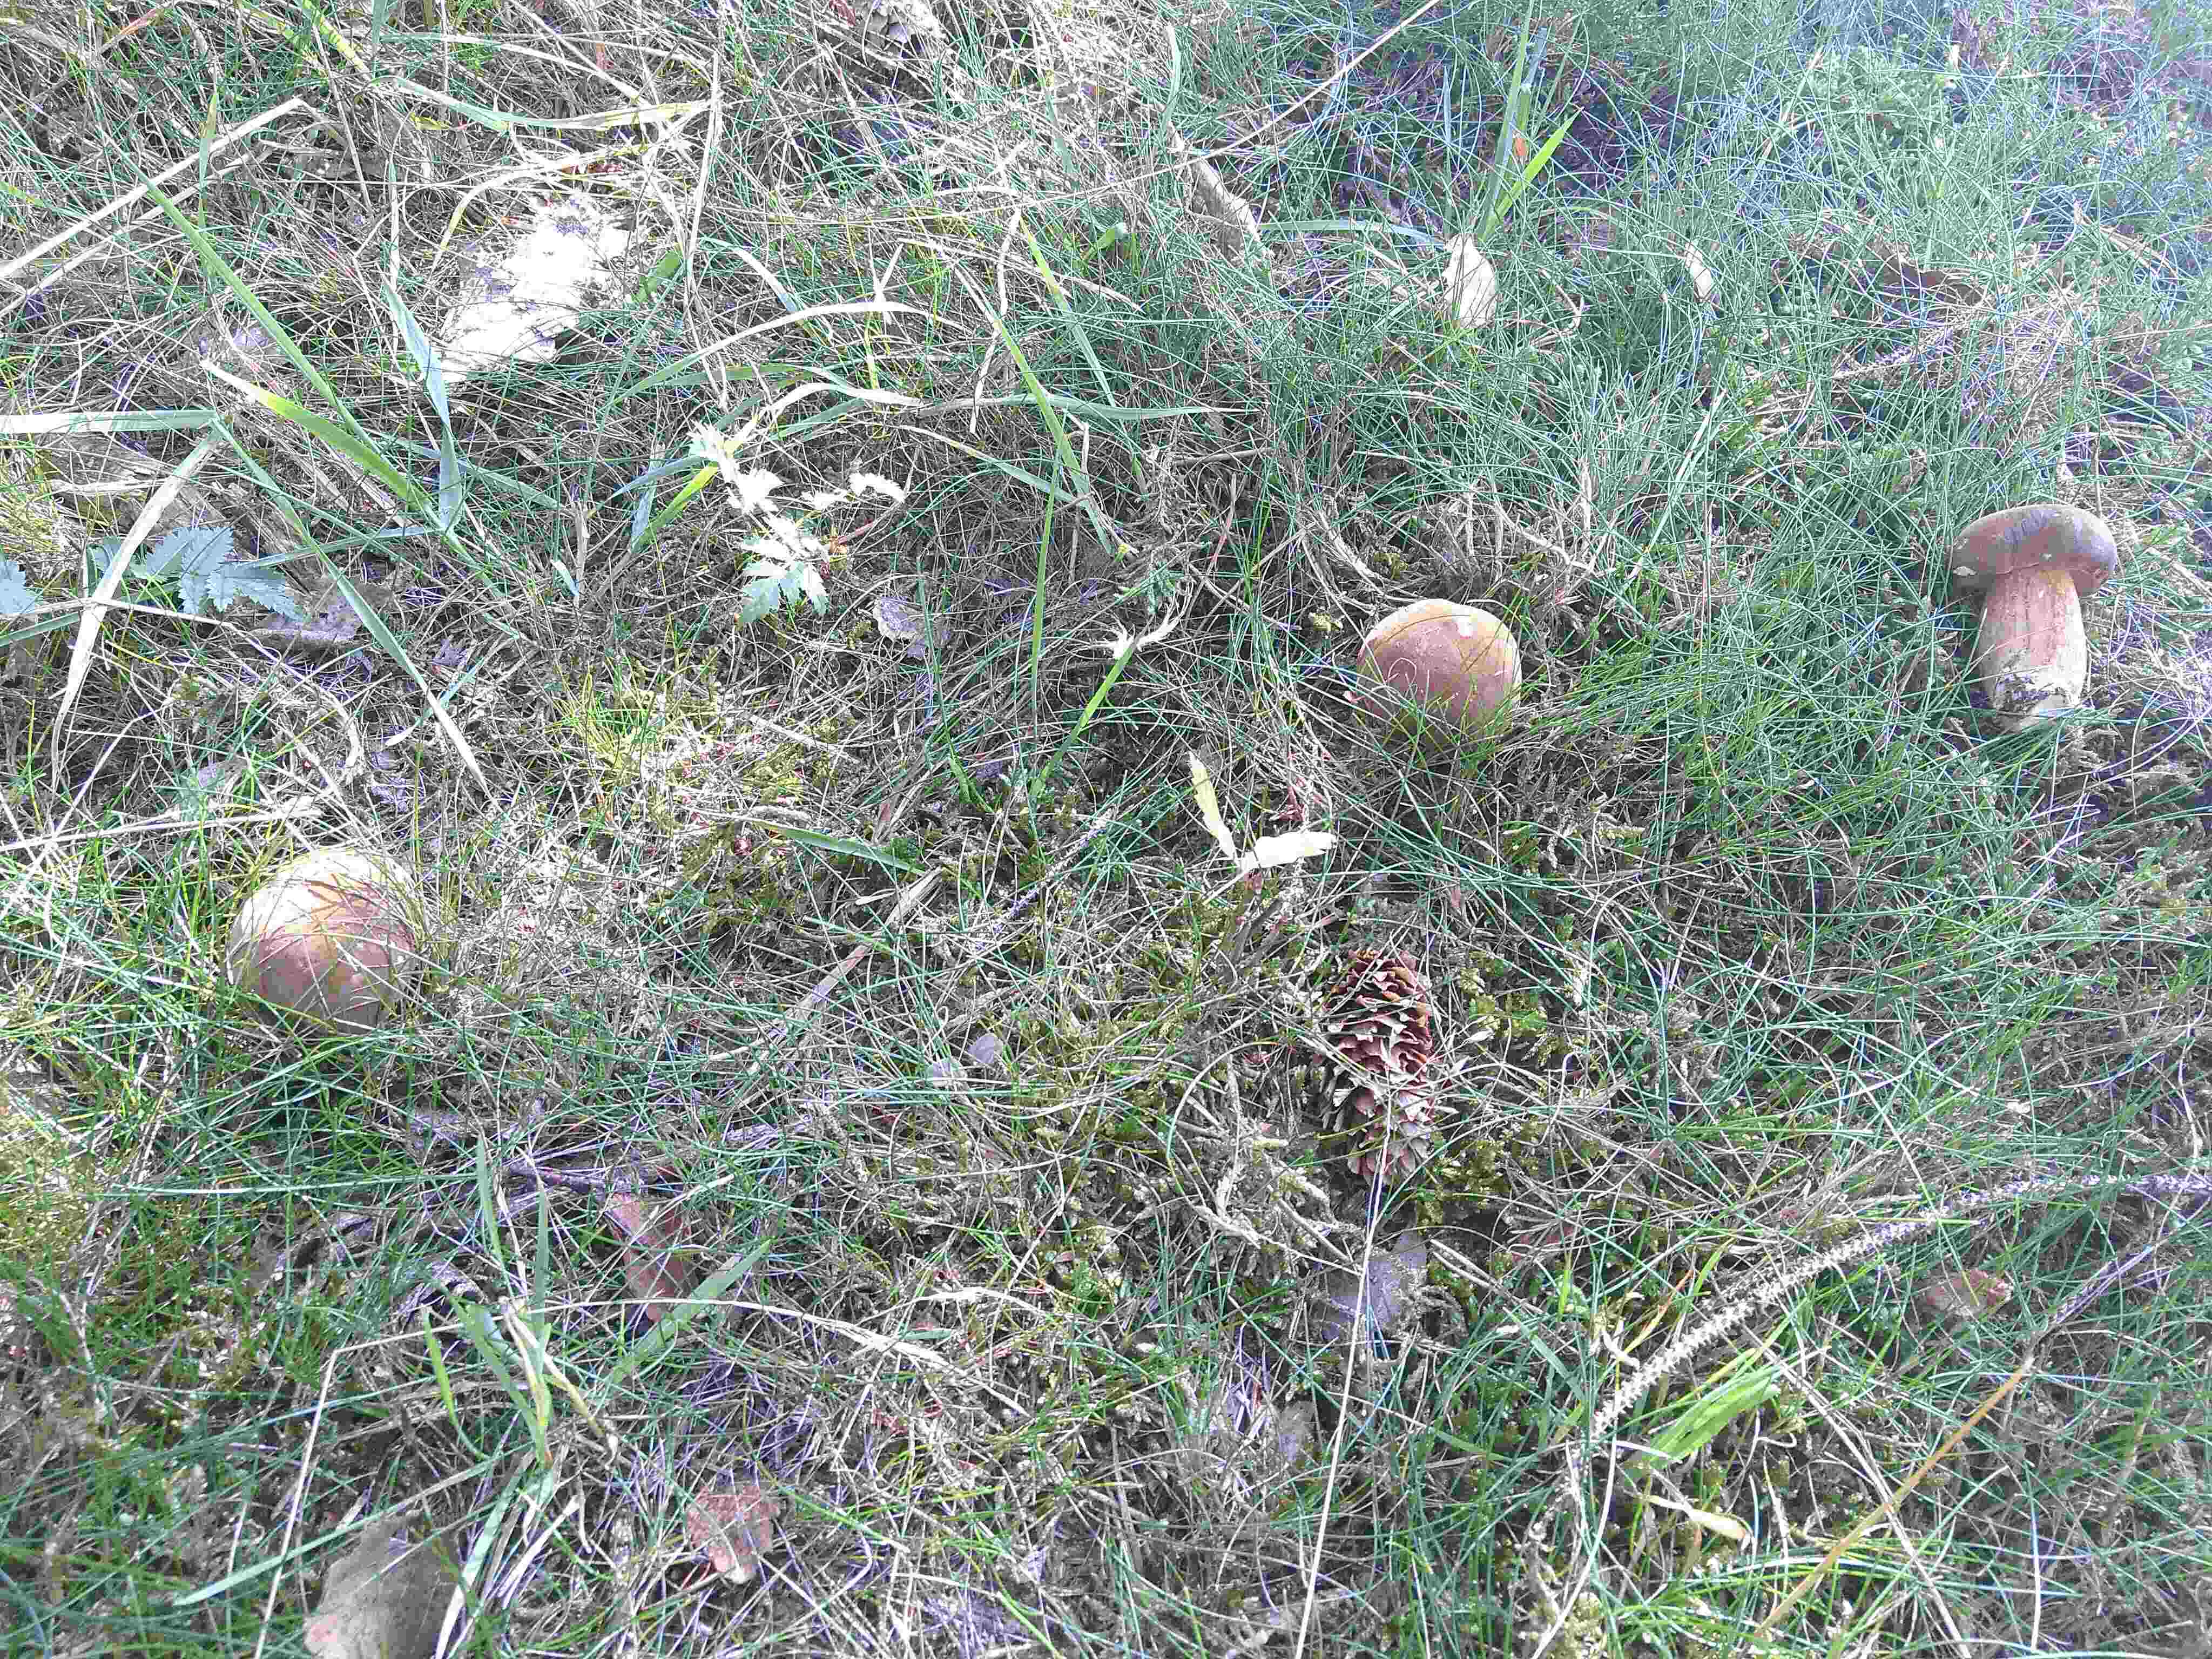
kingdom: Fungi
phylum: Basidiomycota
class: Agaricomycetes
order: Boletales
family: Boletaceae
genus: Imleria
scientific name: Imleria badia
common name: brunstokket rørhat
